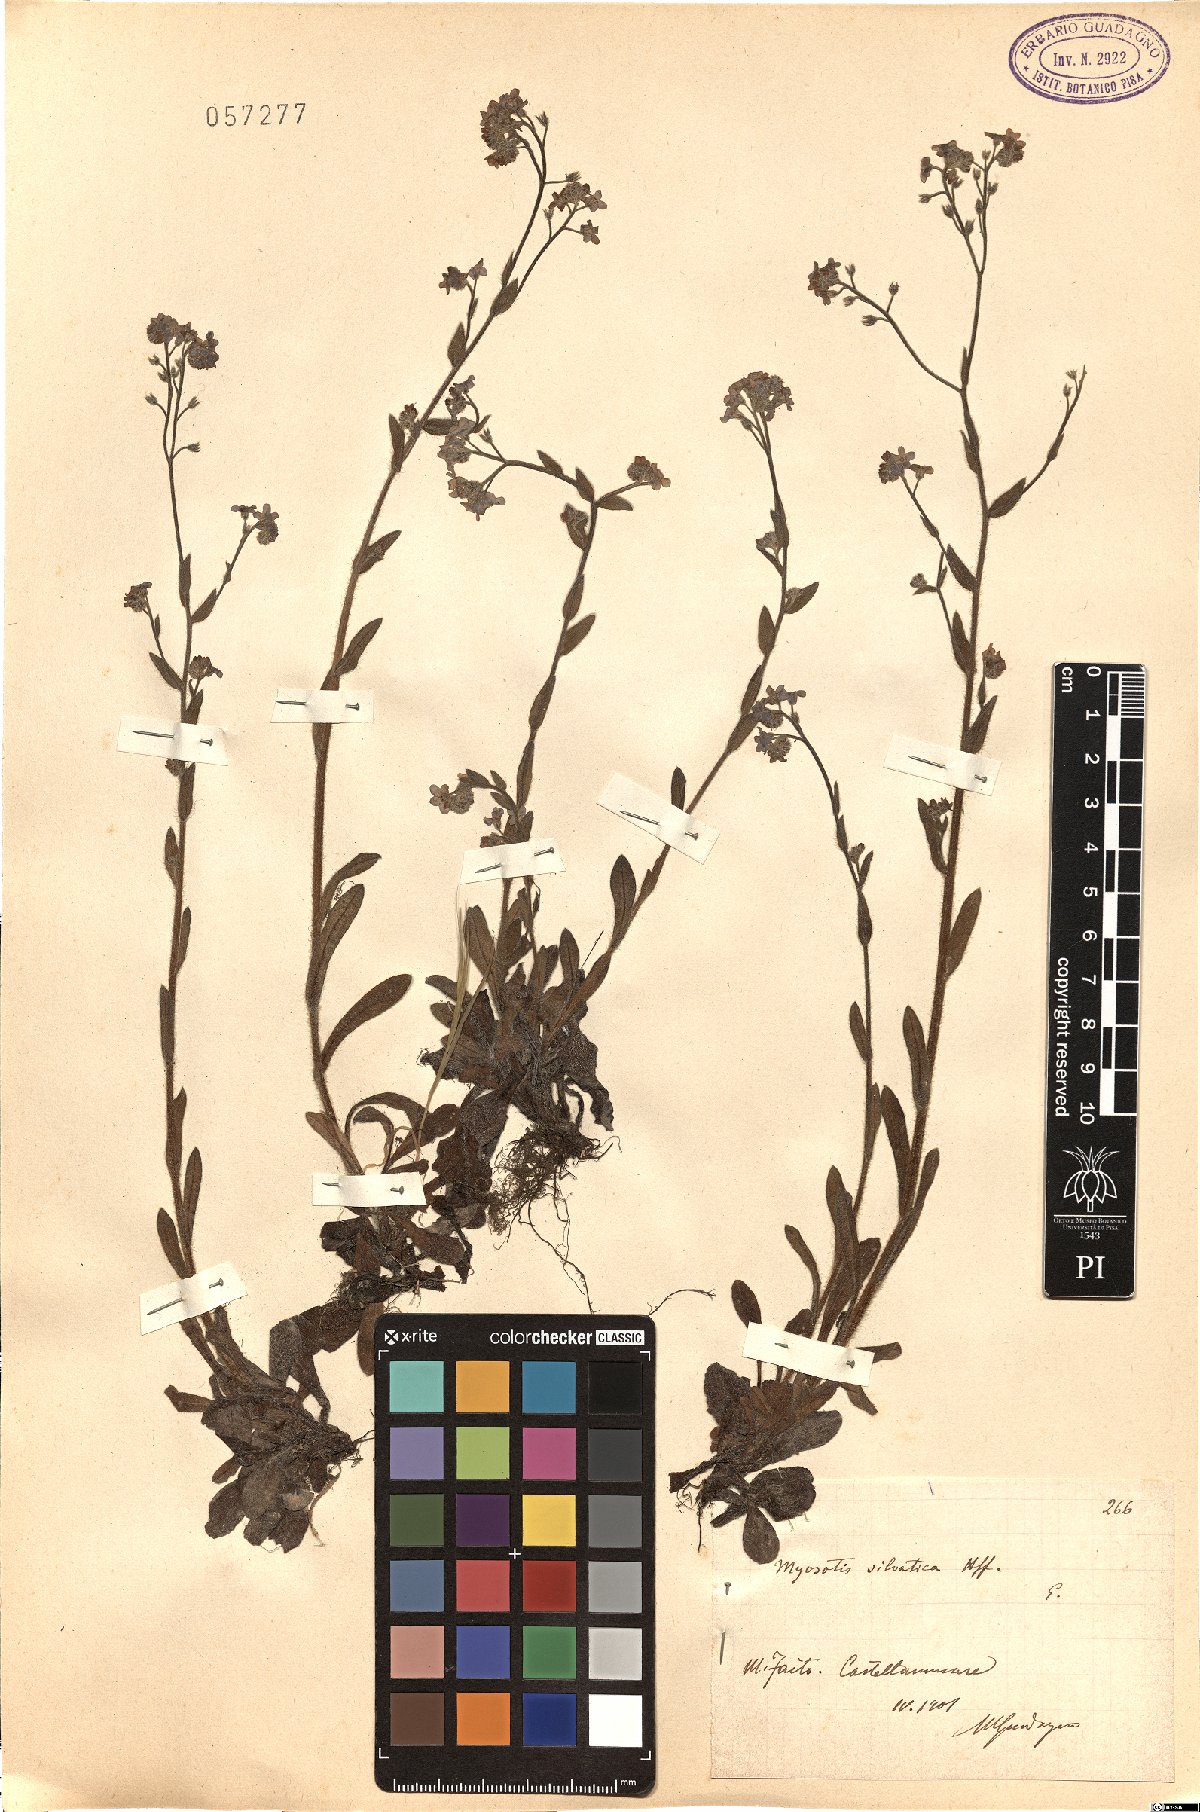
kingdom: Plantae
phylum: Tracheophyta
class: Magnoliopsida
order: Boraginales
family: Boraginaceae
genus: Myosotis
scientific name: Myosotis sylvatica
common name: Wood forget-me-not
